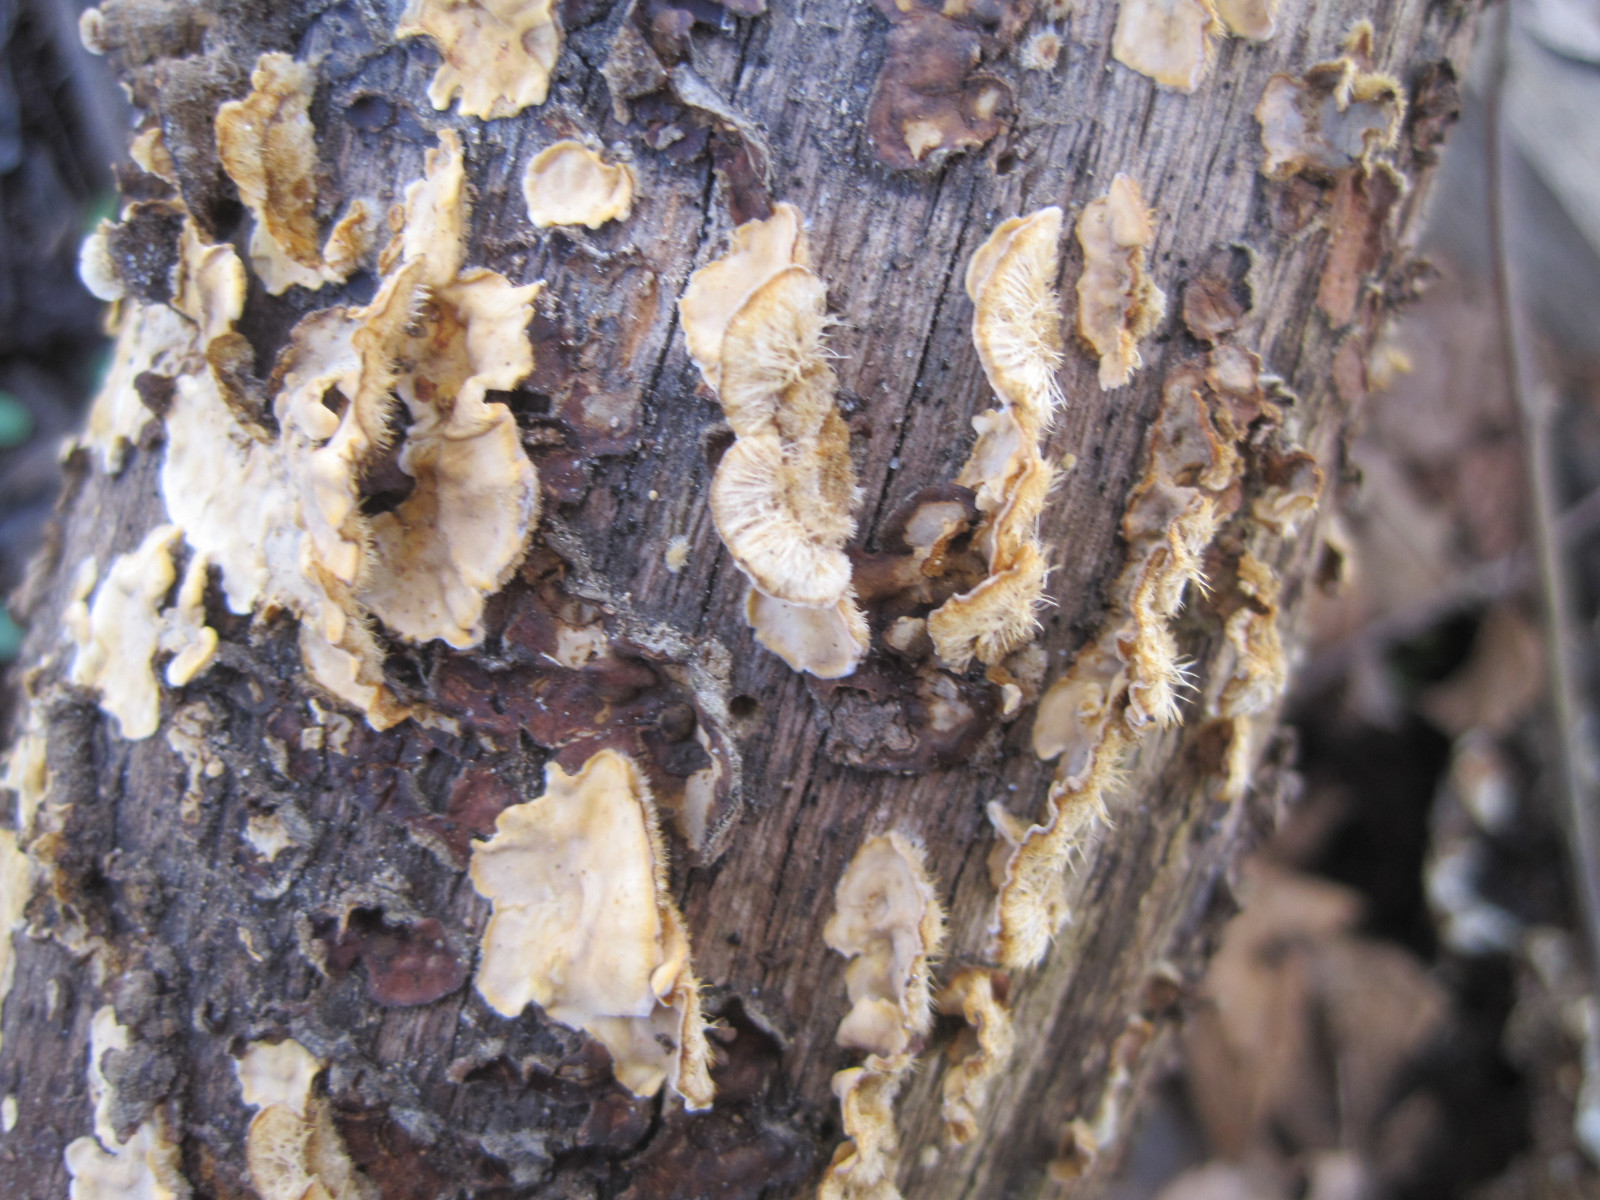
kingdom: Fungi
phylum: Basidiomycota
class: Agaricomycetes
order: Russulales
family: Stereaceae
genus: Stereum
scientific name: Stereum hirsutum
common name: håret lædersvamp
